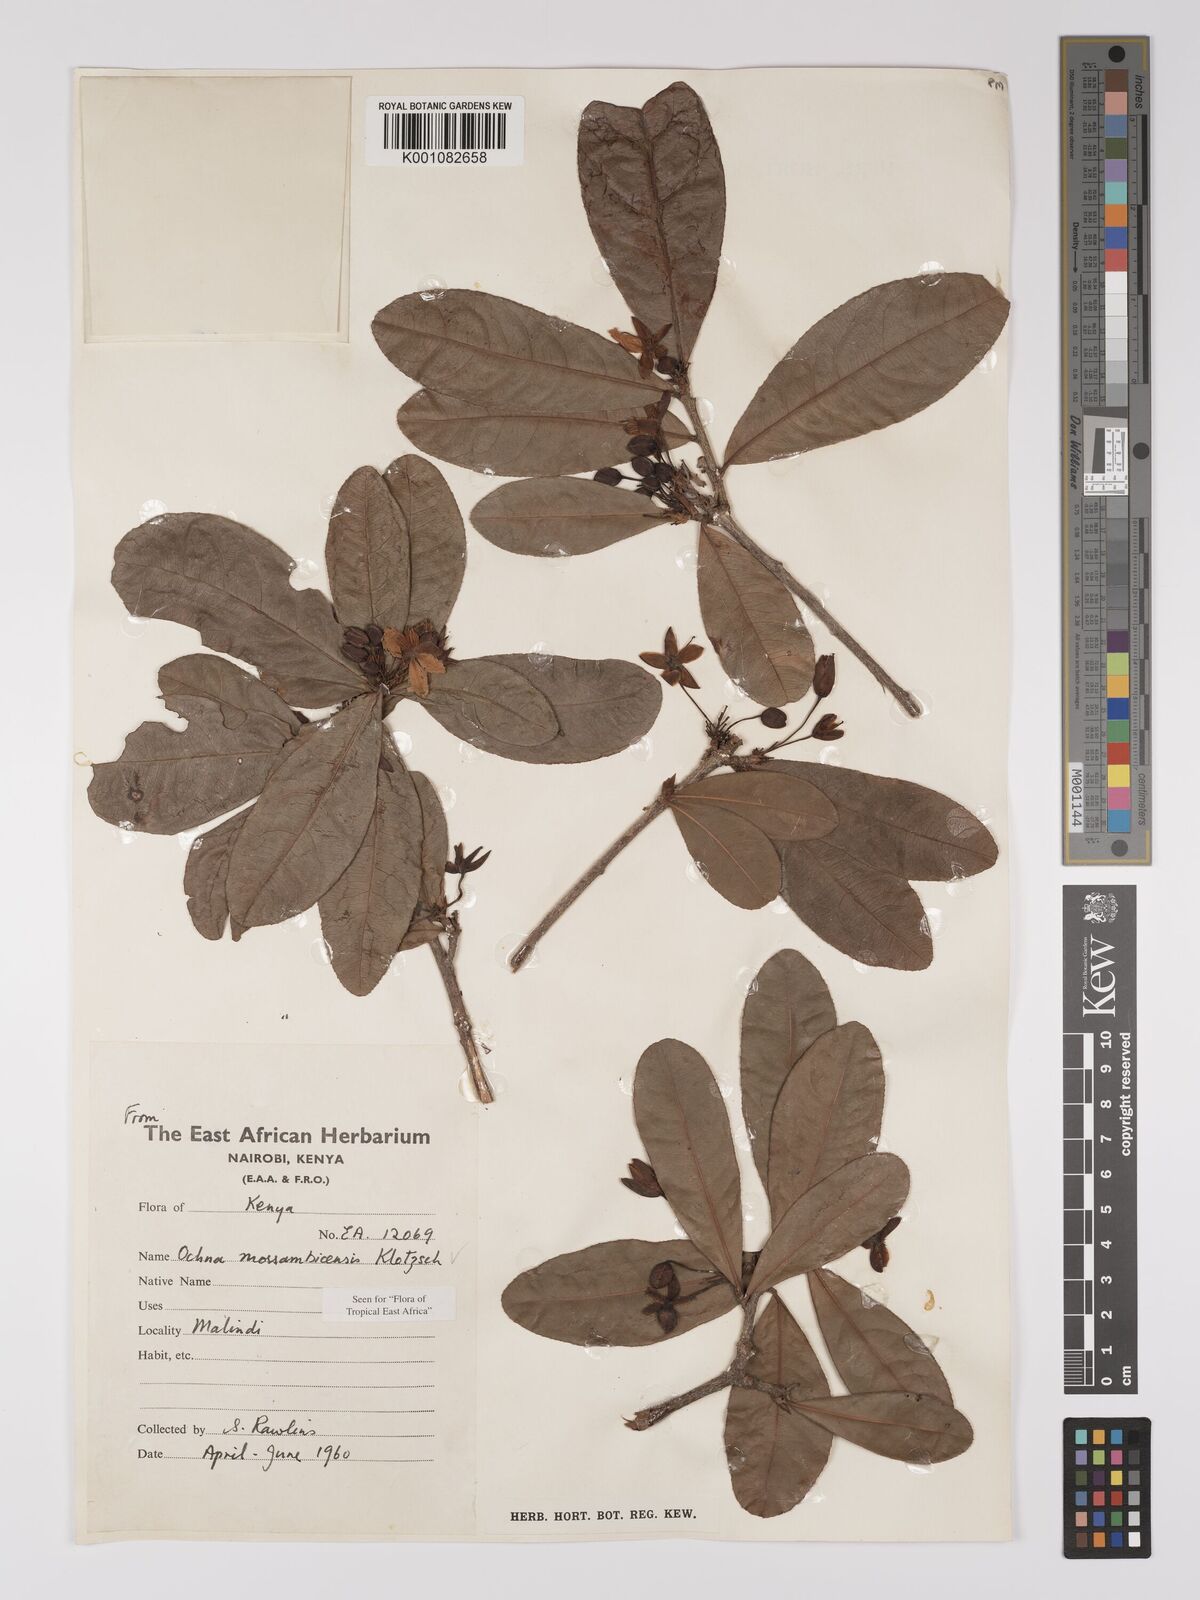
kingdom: Plantae
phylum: Tracheophyta
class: Magnoliopsida
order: Malpighiales
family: Ochnaceae
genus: Ochna
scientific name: Ochna atropurpurea
